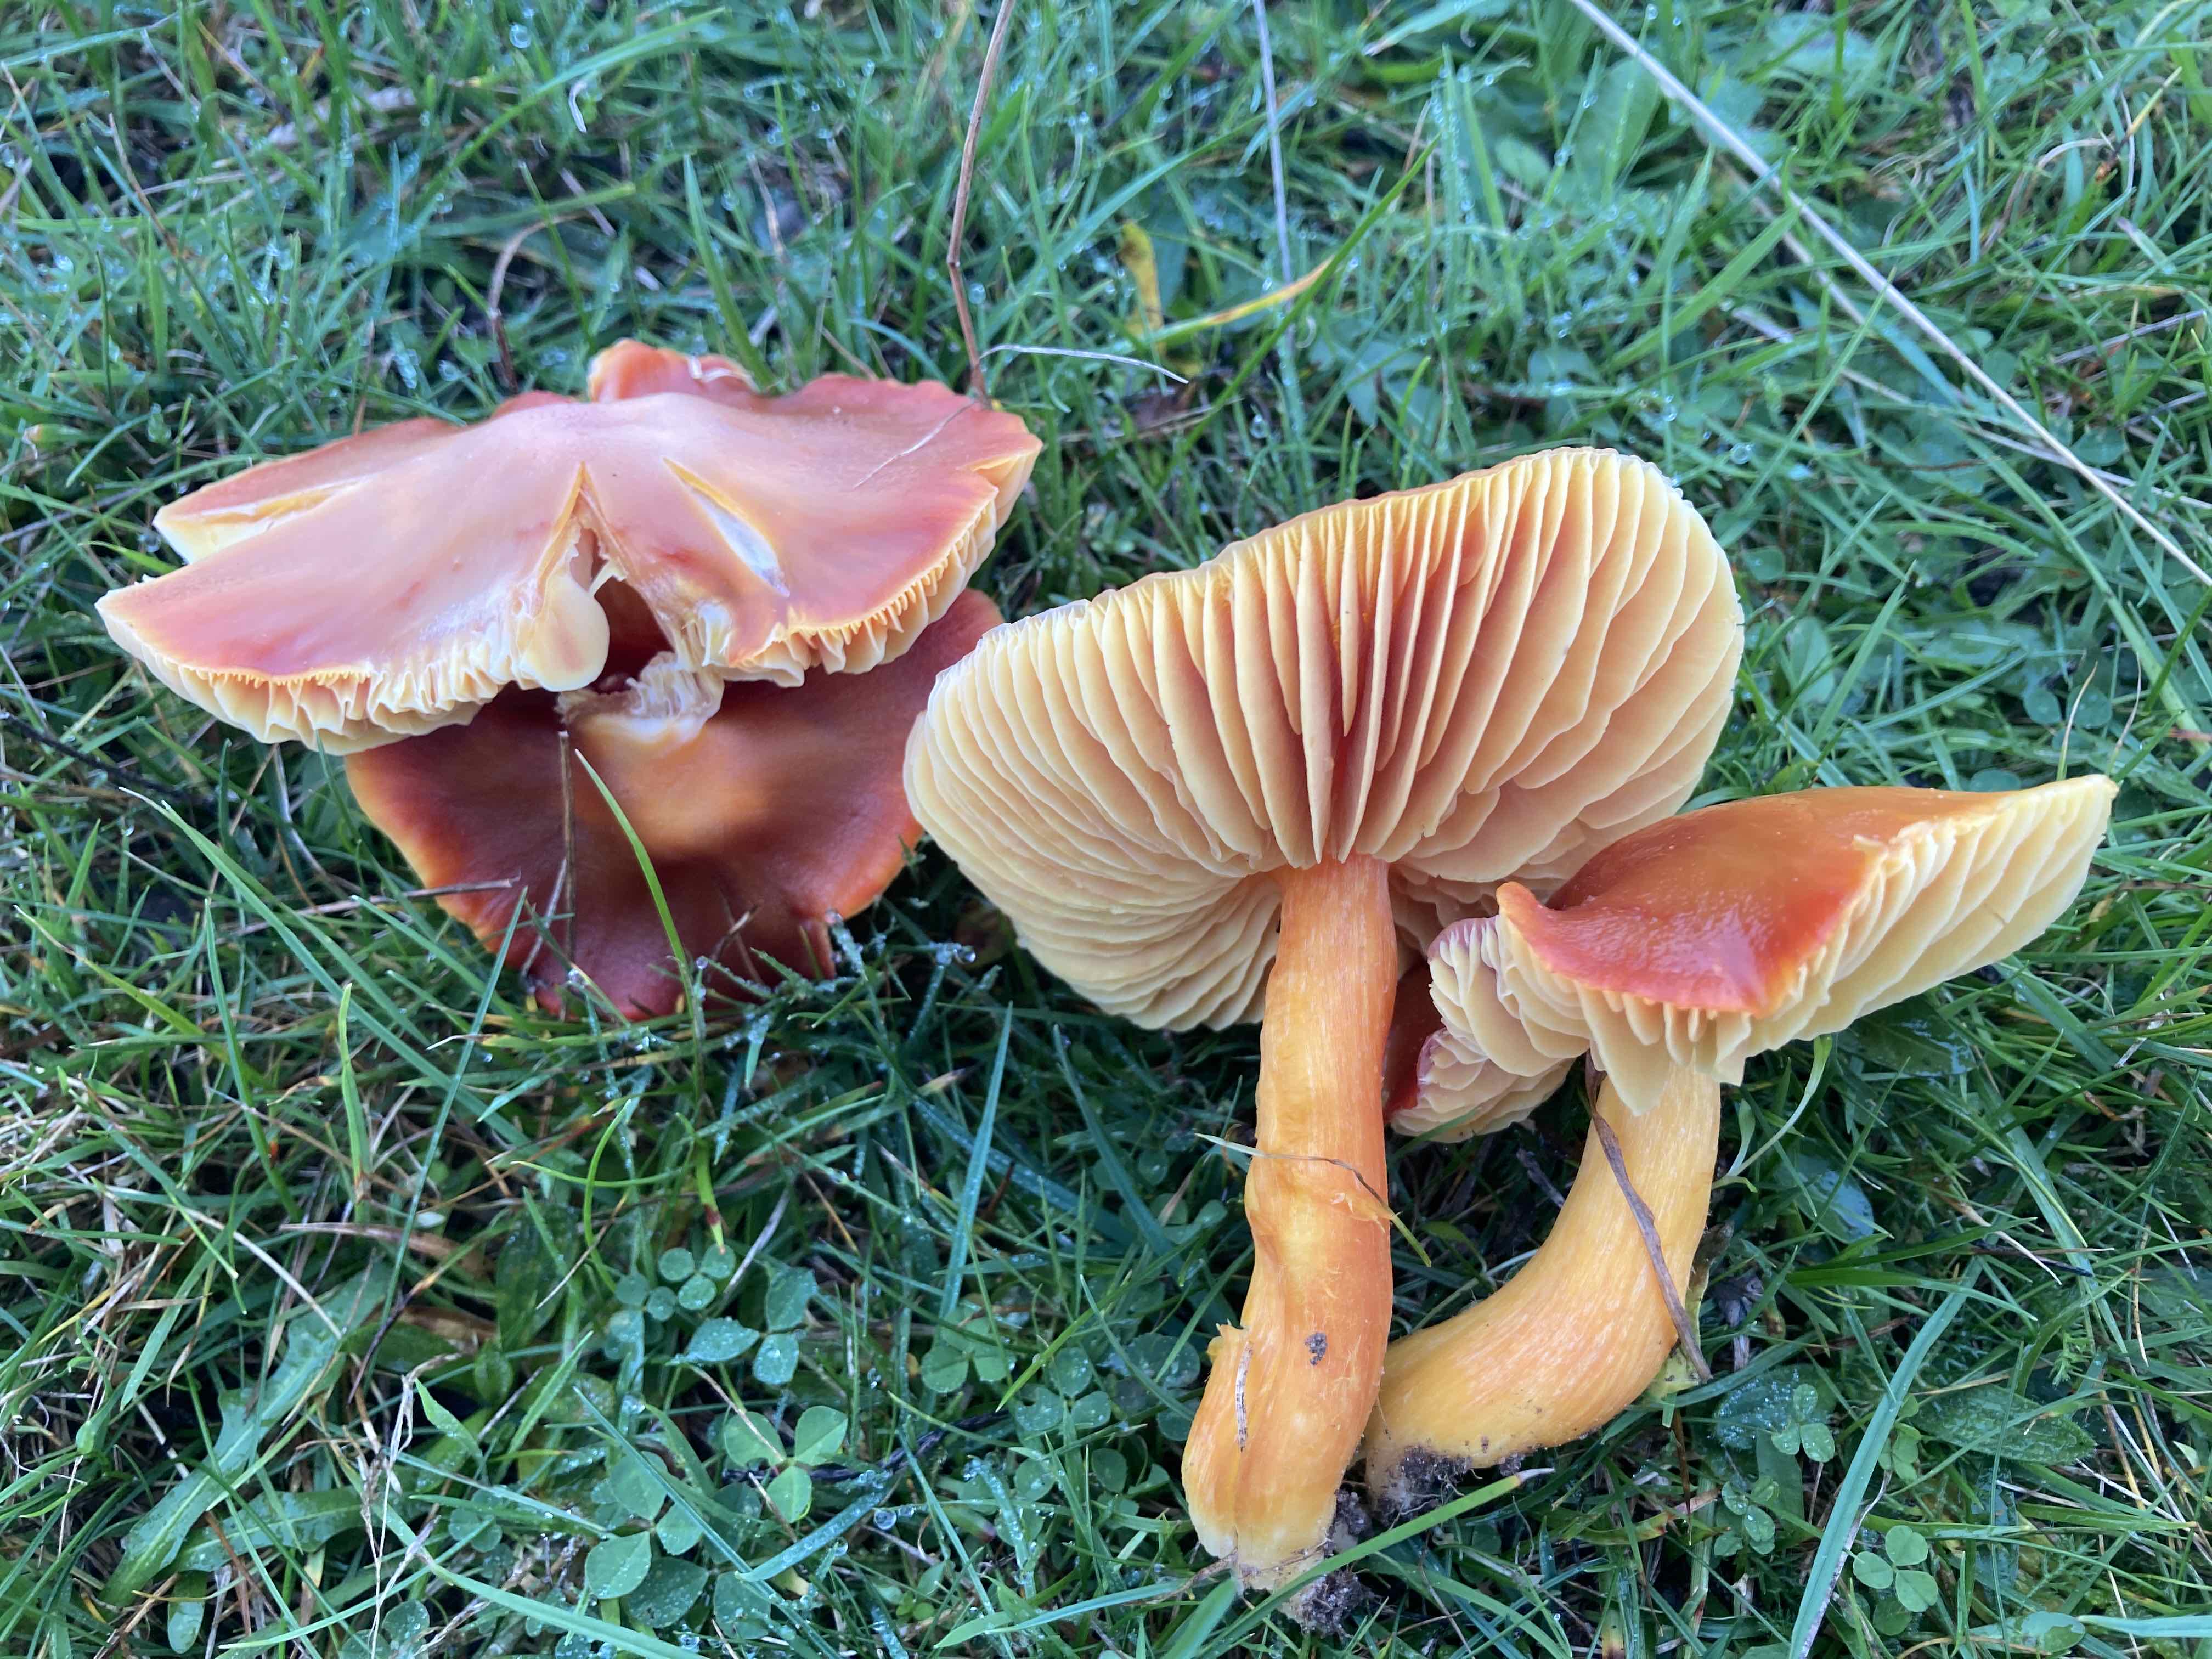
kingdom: Fungi
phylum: Basidiomycota
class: Agaricomycetes
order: Agaricales
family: Hygrophoraceae
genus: Hygrocybe
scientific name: Hygrocybe punicea
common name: skarlagen-vokshat
